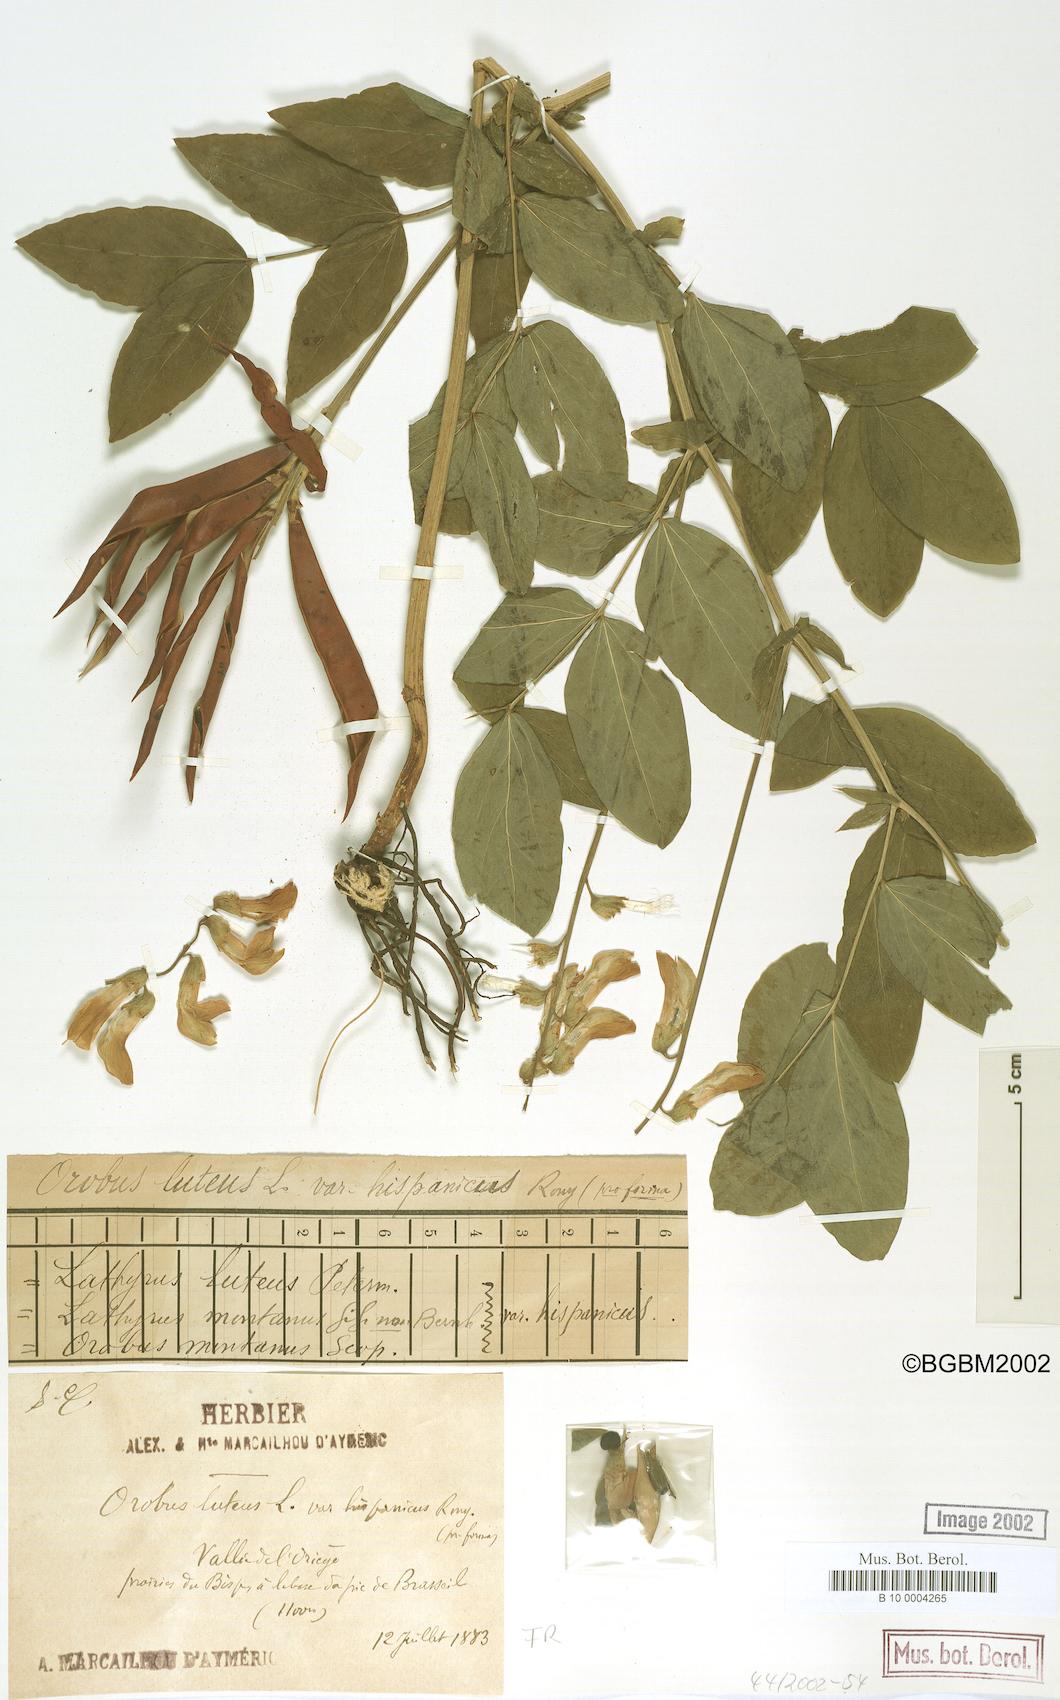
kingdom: Plantae
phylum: Tracheophyta
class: Magnoliopsida
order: Fabales
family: Fabaceae
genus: Lathyrus
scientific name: Lathyrus gmelinii
